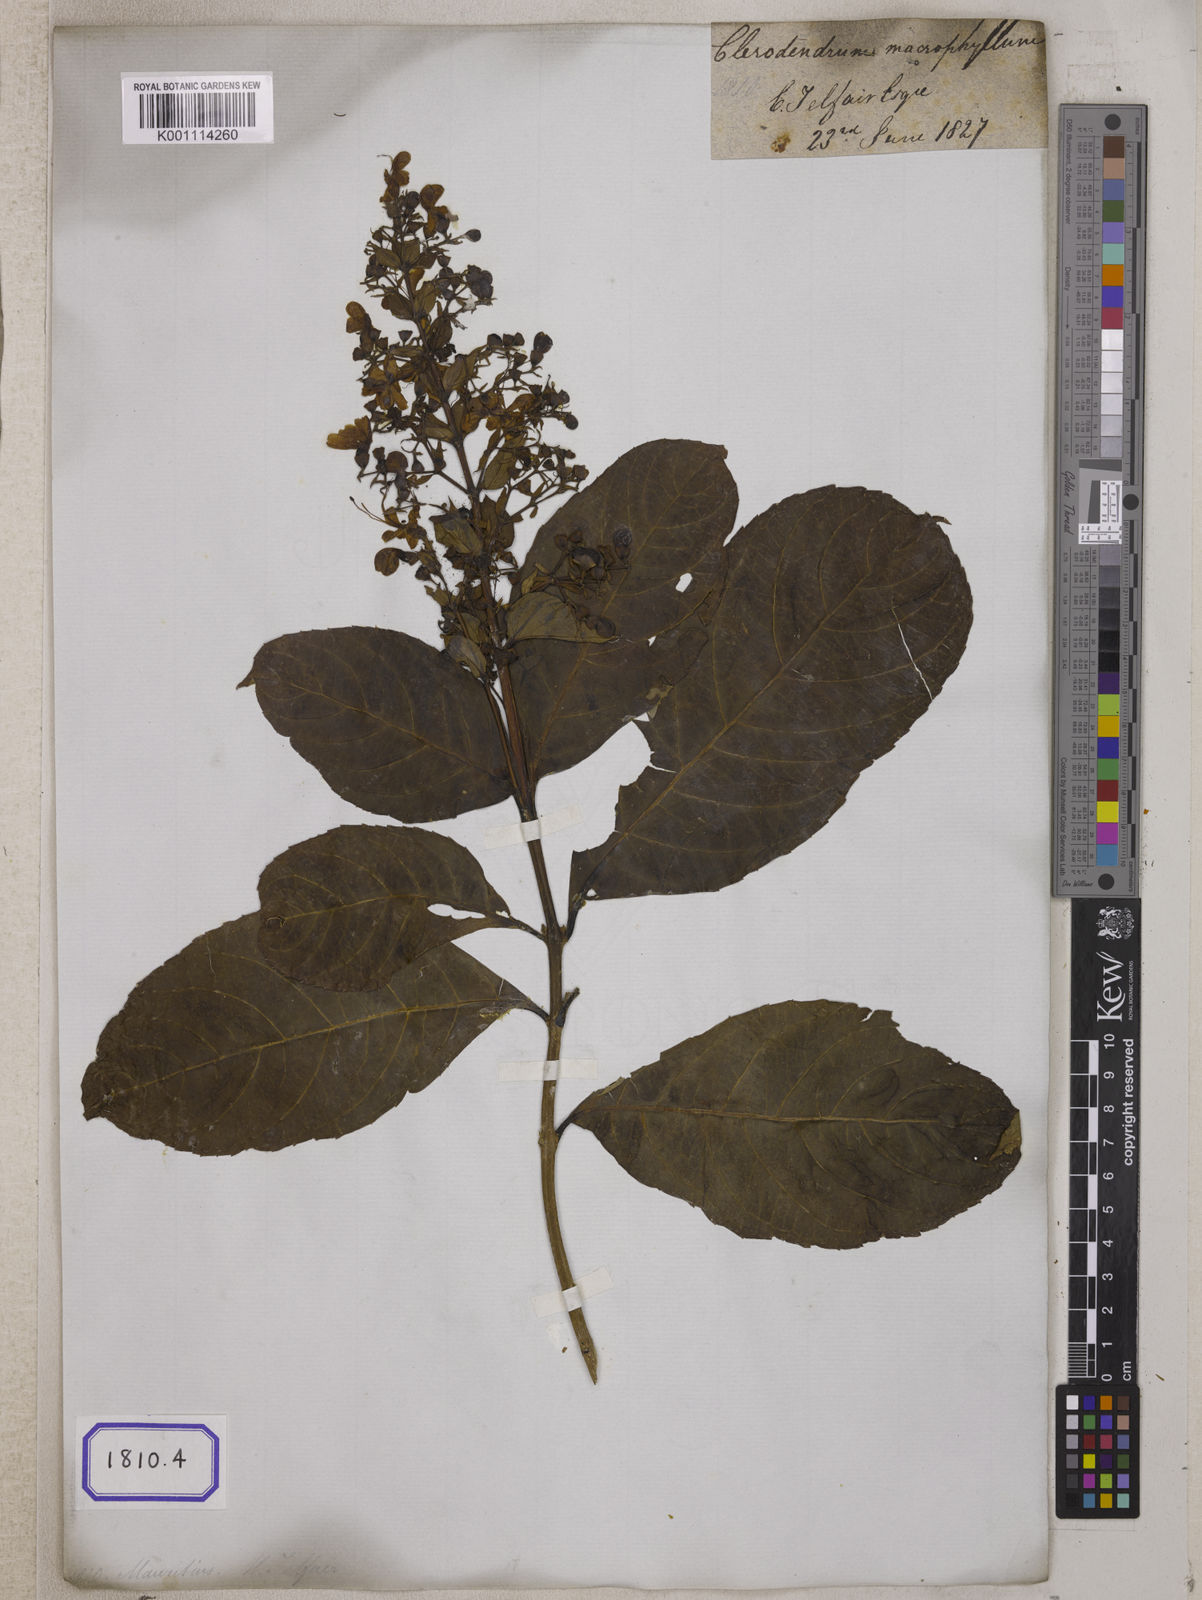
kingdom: Plantae
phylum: Tracheophyta
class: Magnoliopsida
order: Lamiales
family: Lamiaceae
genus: Clerodendrum
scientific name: Clerodendrum
